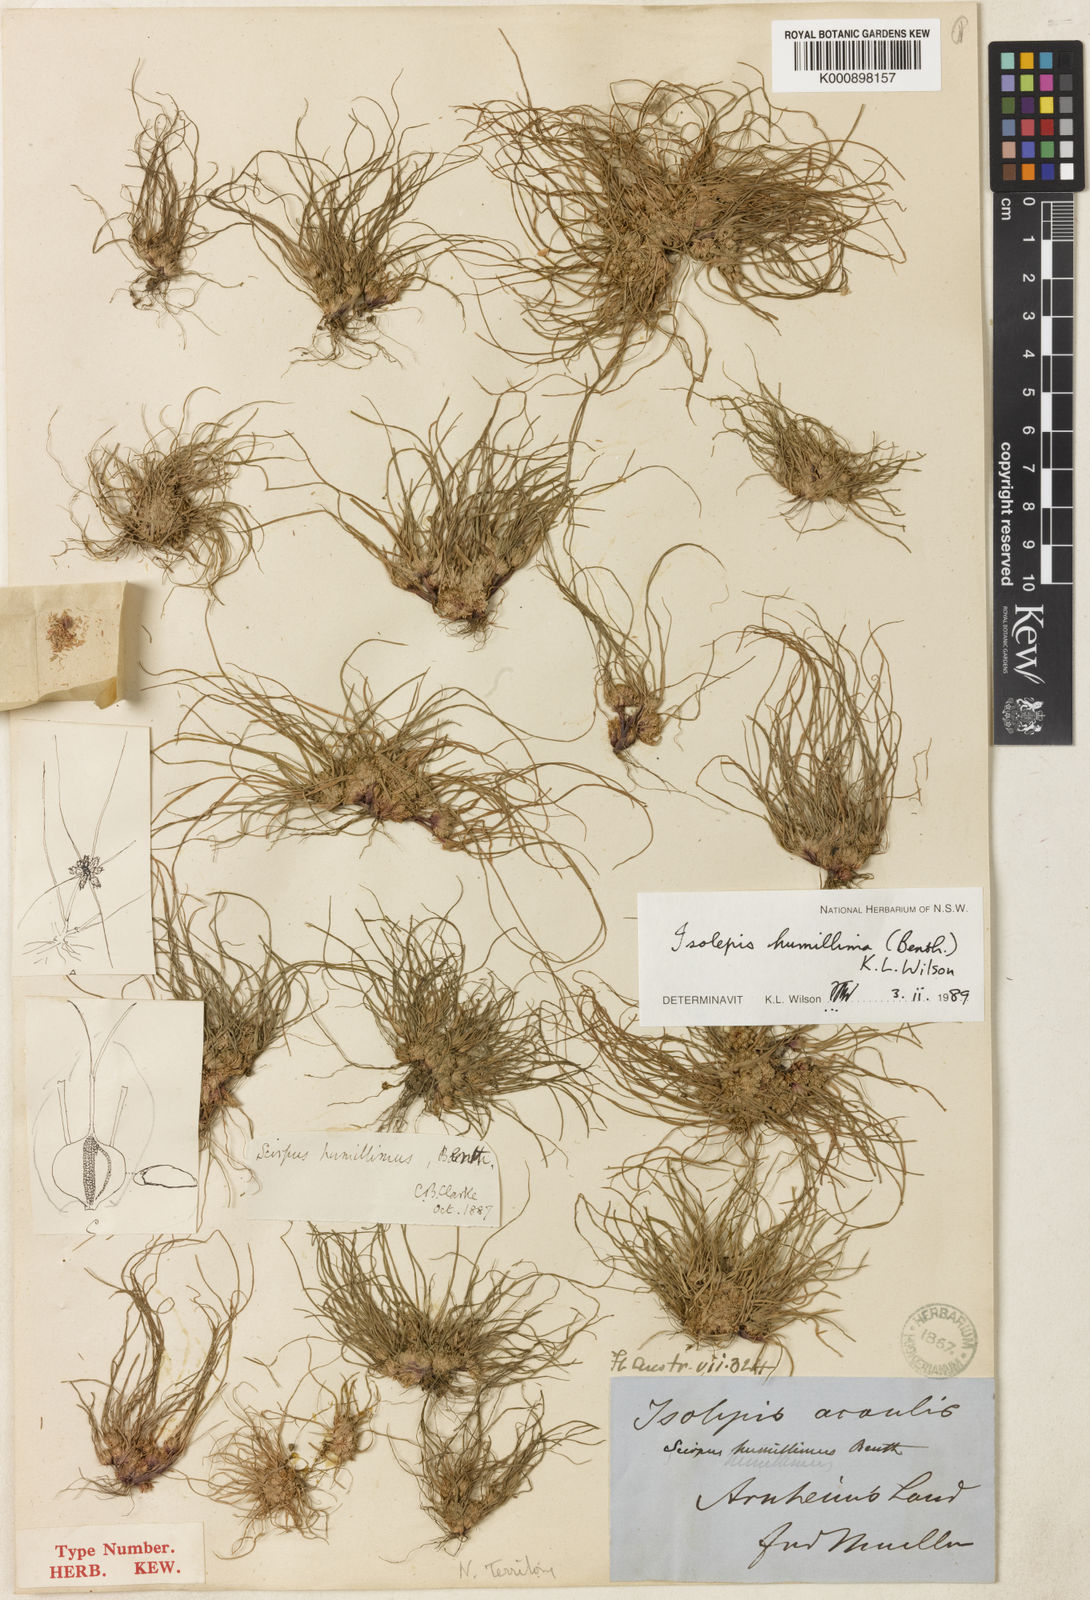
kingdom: Plantae
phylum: Tracheophyta
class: Liliopsida
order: Poales
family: Cyperaceae
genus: Schoenoplectiella
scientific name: Schoenoplectiella humillima
